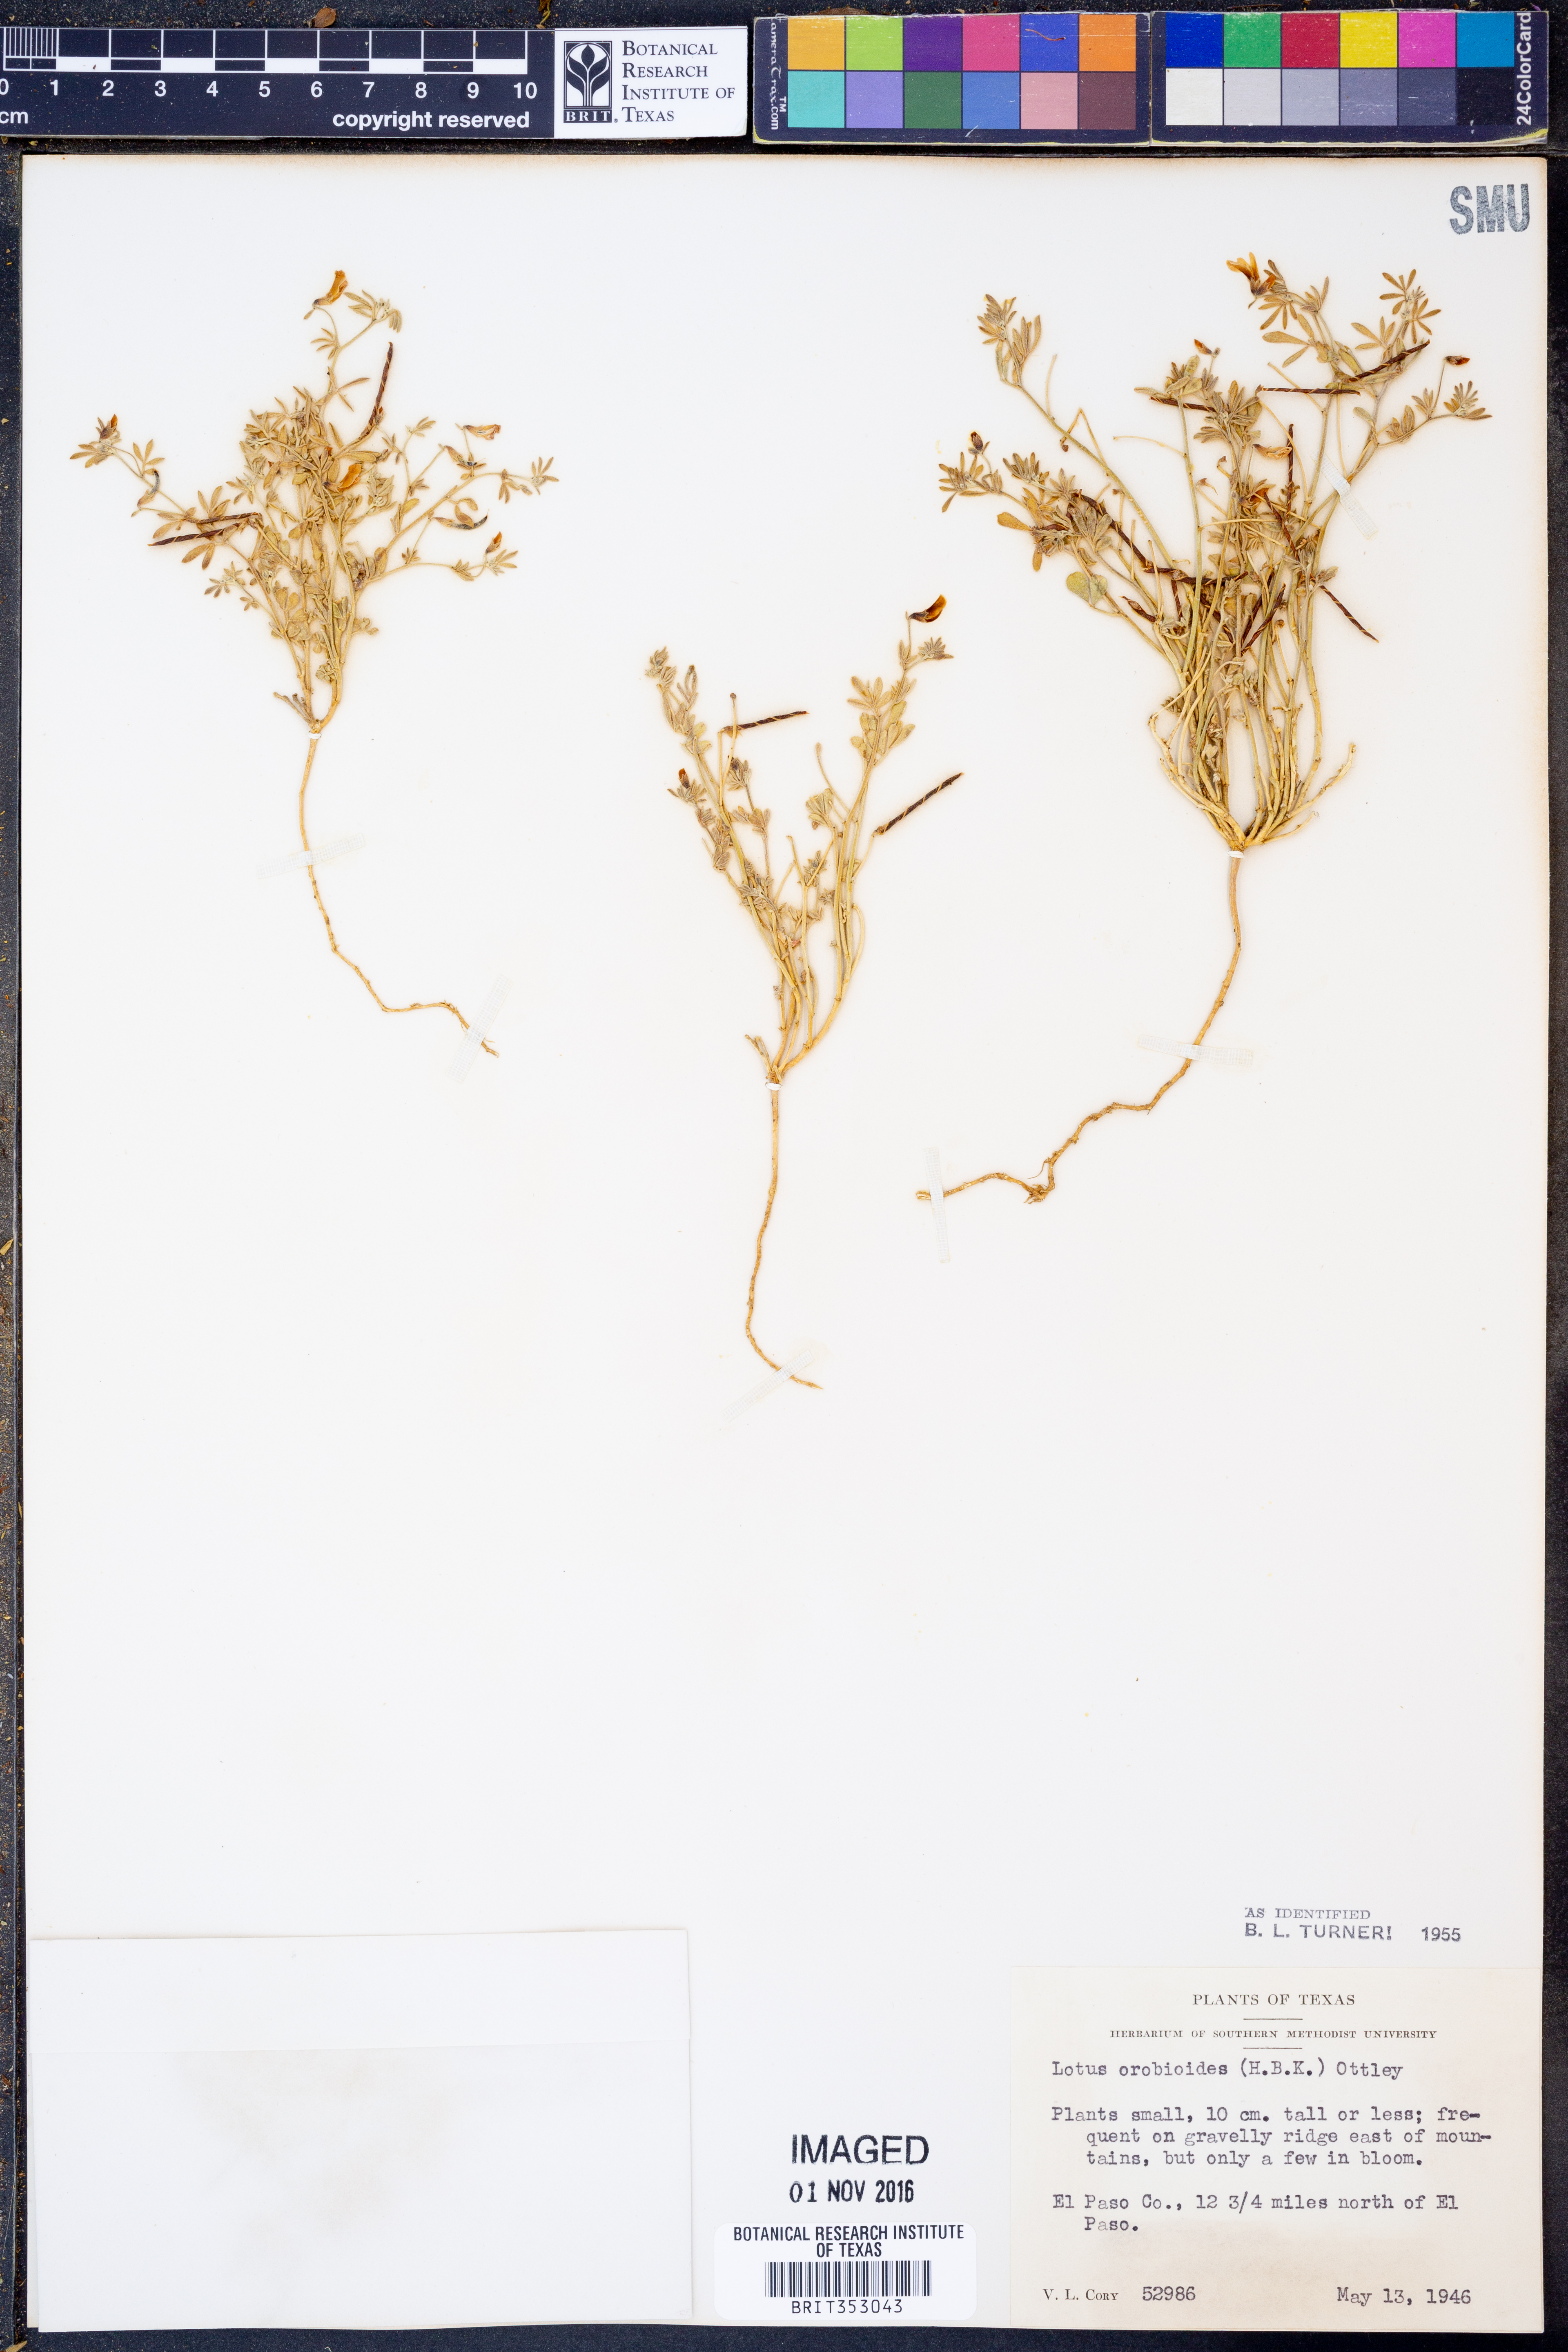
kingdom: Plantae
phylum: Tracheophyta
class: Magnoliopsida
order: Fabales
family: Fabaceae
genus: Acmispon
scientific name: Acmispon oroboides
